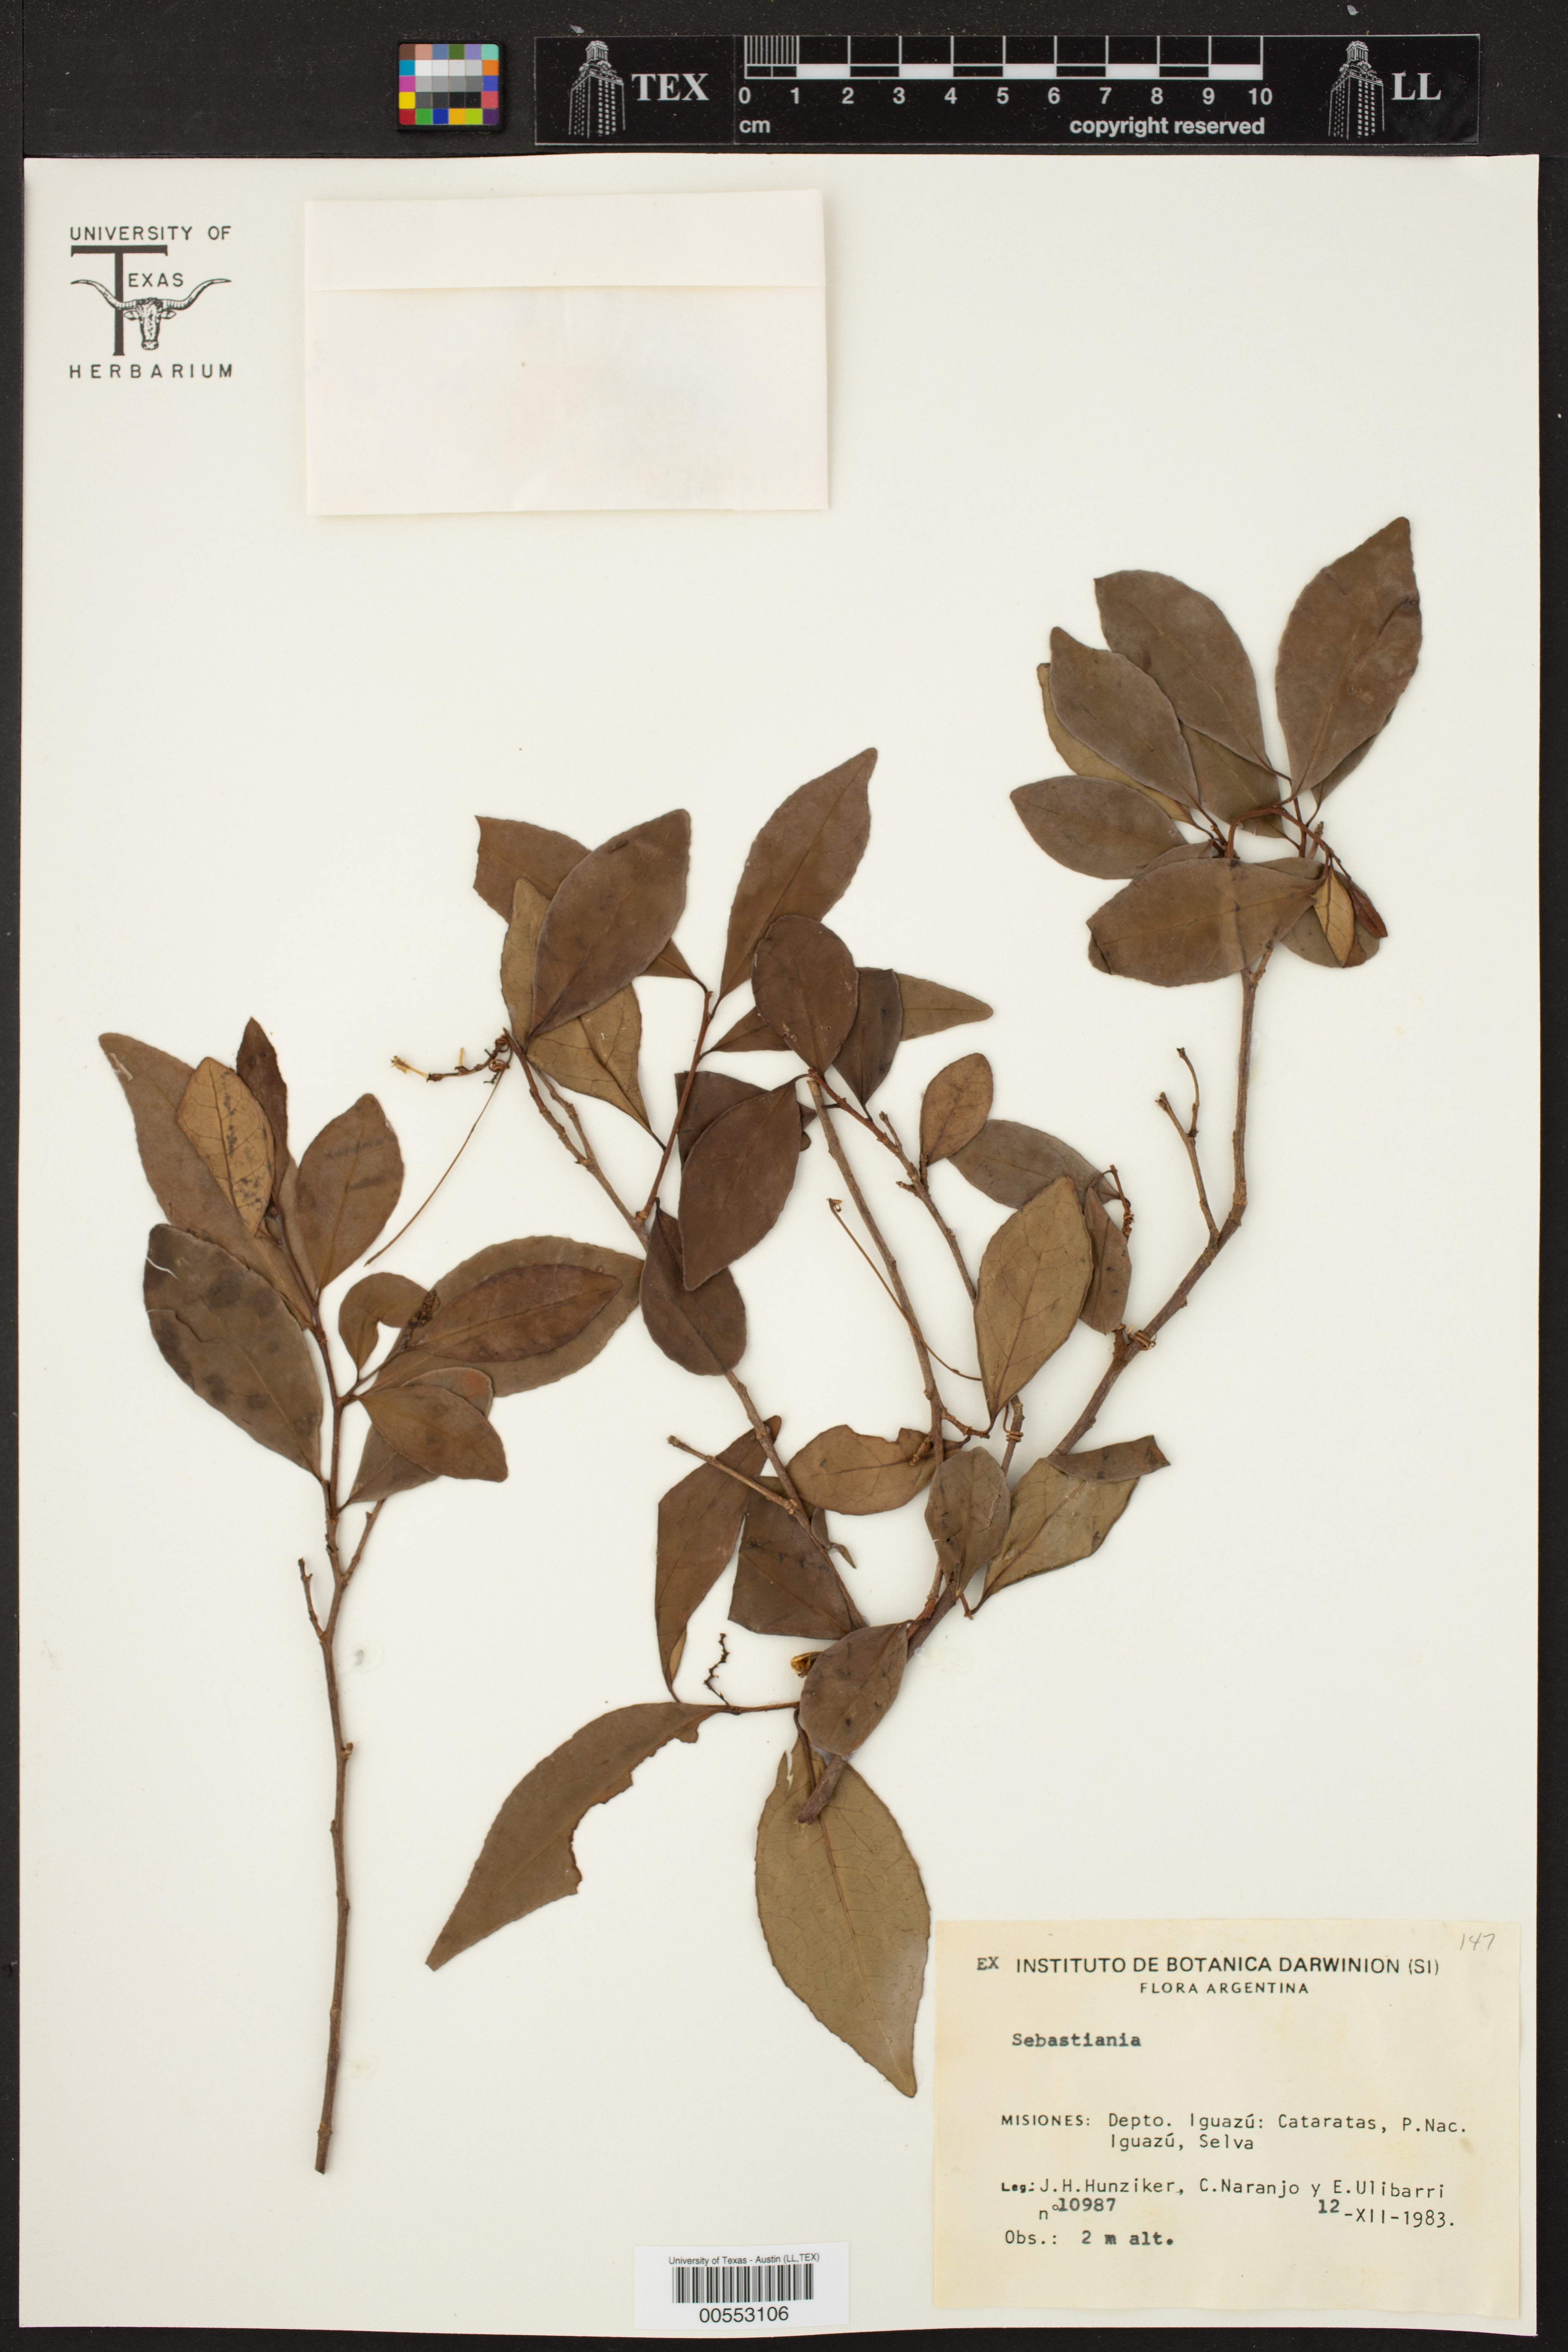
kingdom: Plantae
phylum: Tracheophyta
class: Magnoliopsida
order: Malpighiales
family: Euphorbiaceae
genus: Sebastiania
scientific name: Sebastiania
